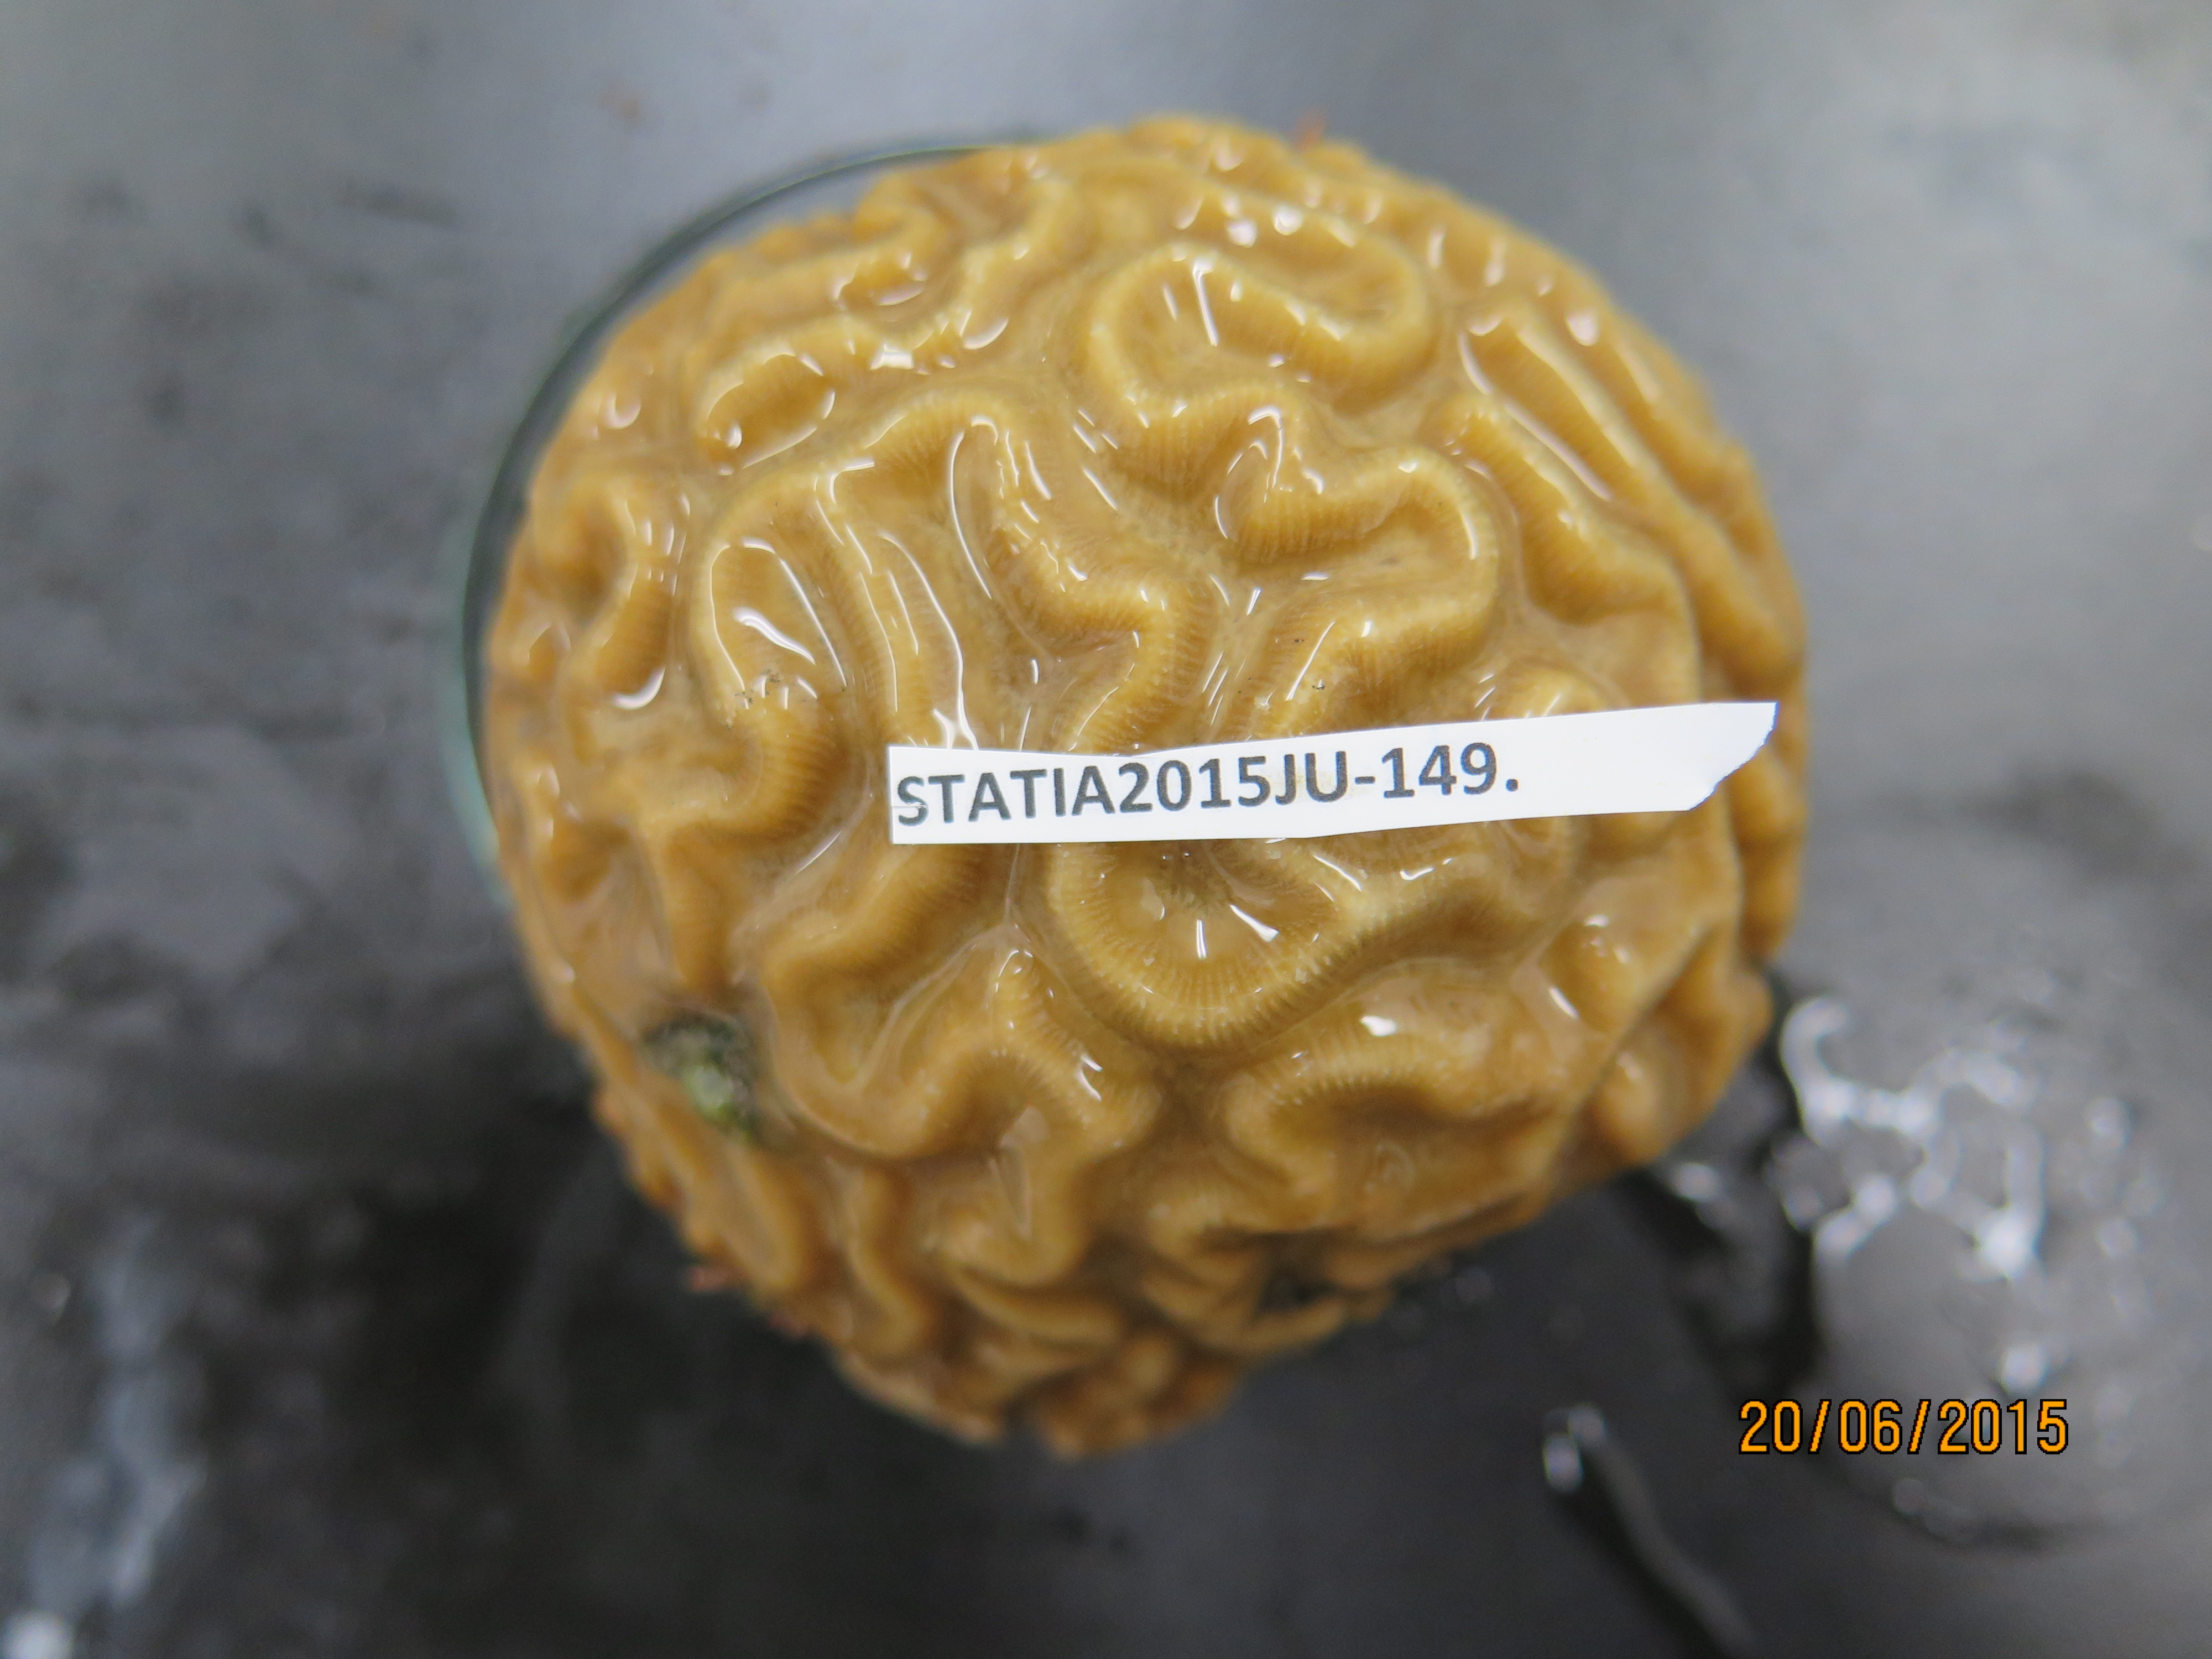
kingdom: Animalia
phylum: Cnidaria
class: Anthozoa
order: Scleractinia
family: Faviidae
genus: Pseudodiploria
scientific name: Pseudodiploria strigosa
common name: Symmetrical brain coral
